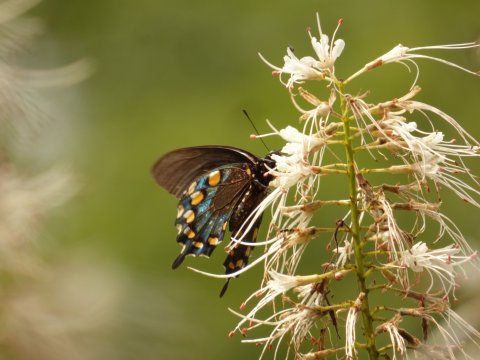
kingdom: Animalia
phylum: Arthropoda
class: Insecta
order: Lepidoptera
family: Papilionidae
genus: Battus
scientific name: Battus philenor
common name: Pipevine Swallowtail
